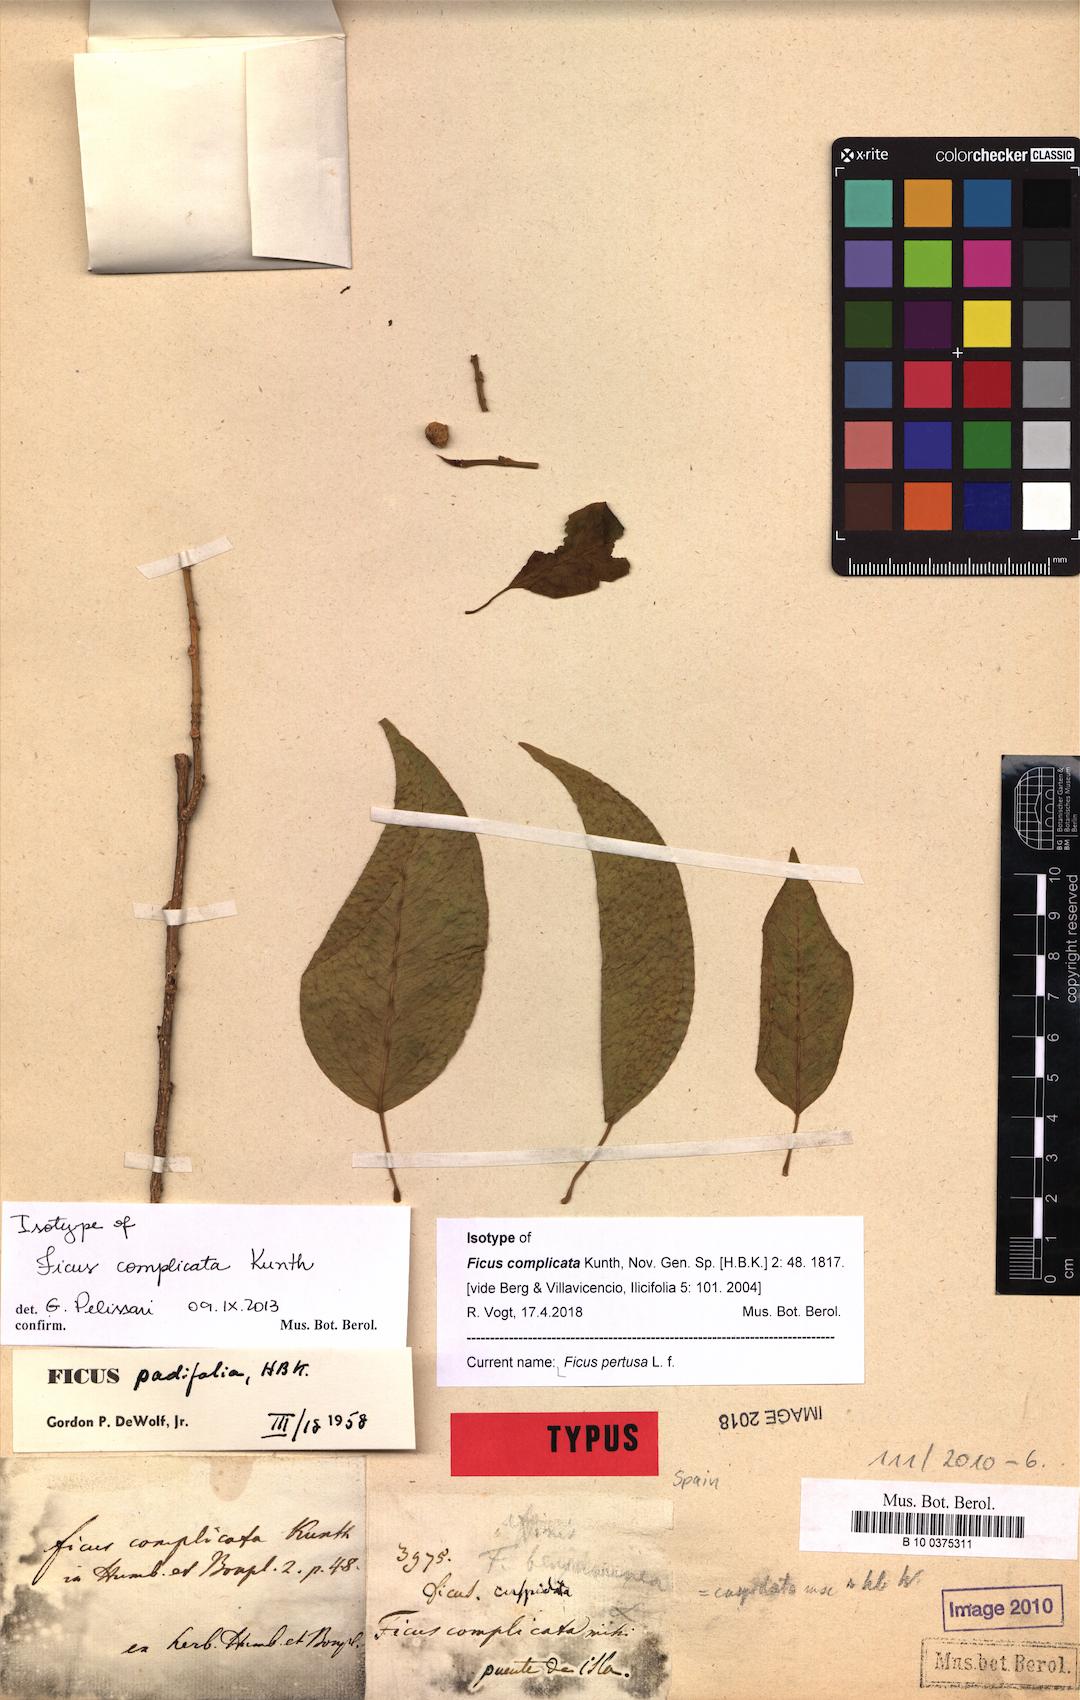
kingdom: Plantae
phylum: Tracheophyta
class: Magnoliopsida
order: Rosales
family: Moraceae
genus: Ficus
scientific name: Ficus pertusa
